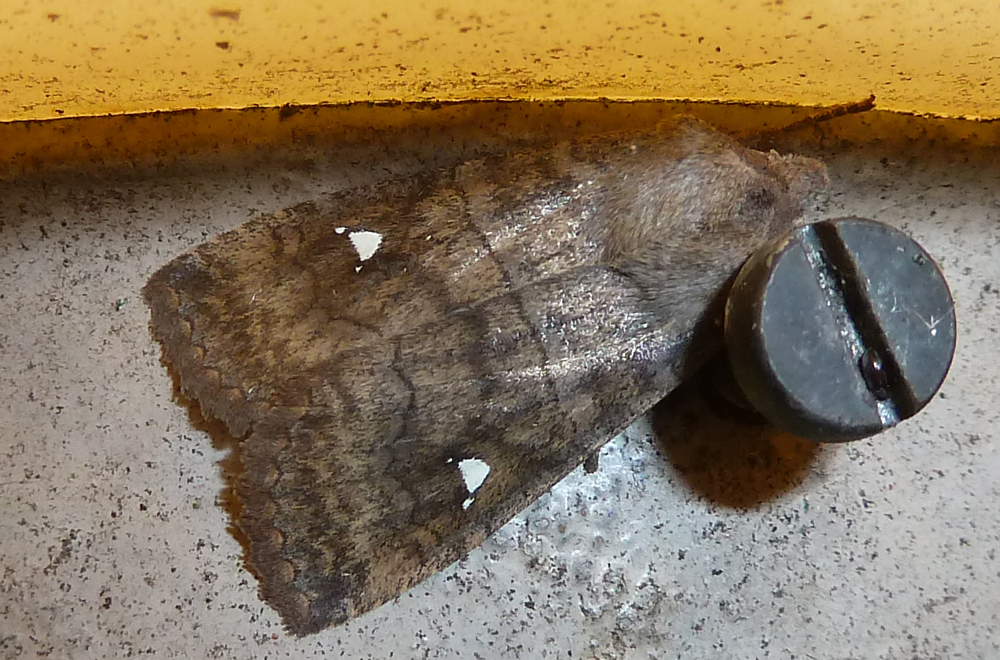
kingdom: Animalia
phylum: Arthropoda
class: Insecta
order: Lepidoptera
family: Noctuidae
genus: Eupsilia
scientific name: Eupsilia transversa
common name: Satellite
